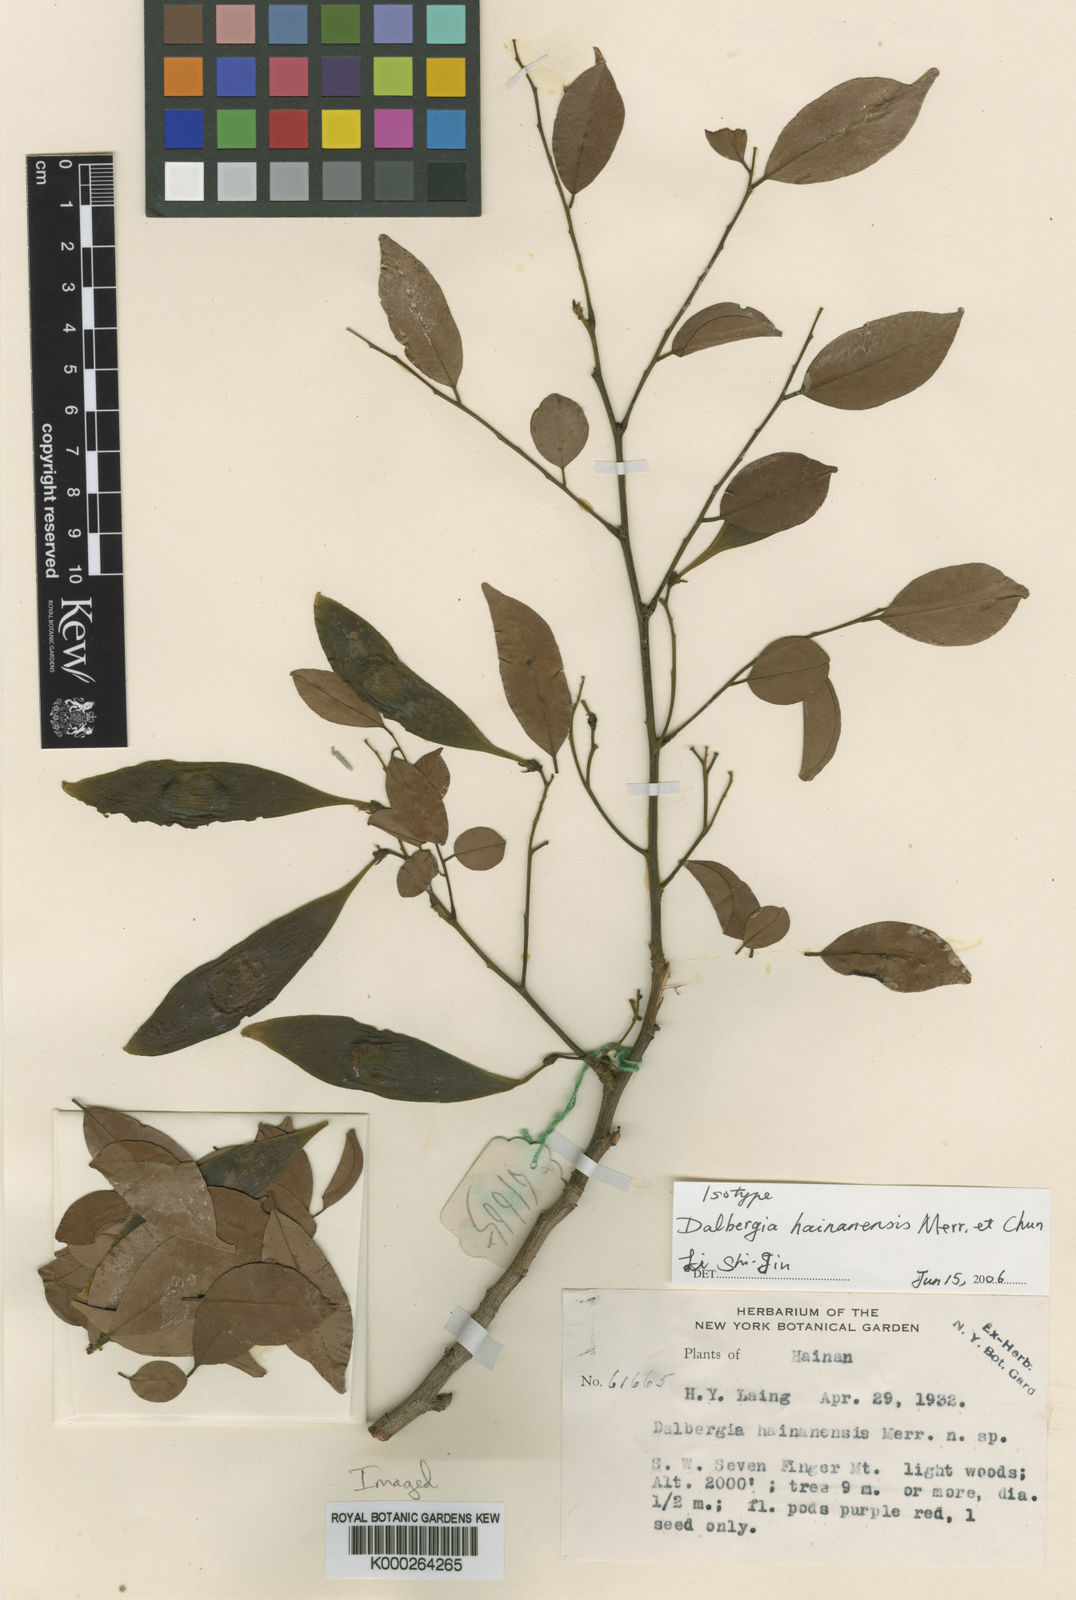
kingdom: Plantae
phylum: Tracheophyta
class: Magnoliopsida
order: Fabales
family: Fabaceae
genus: Dalbergia
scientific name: Dalbergia hainanensis
